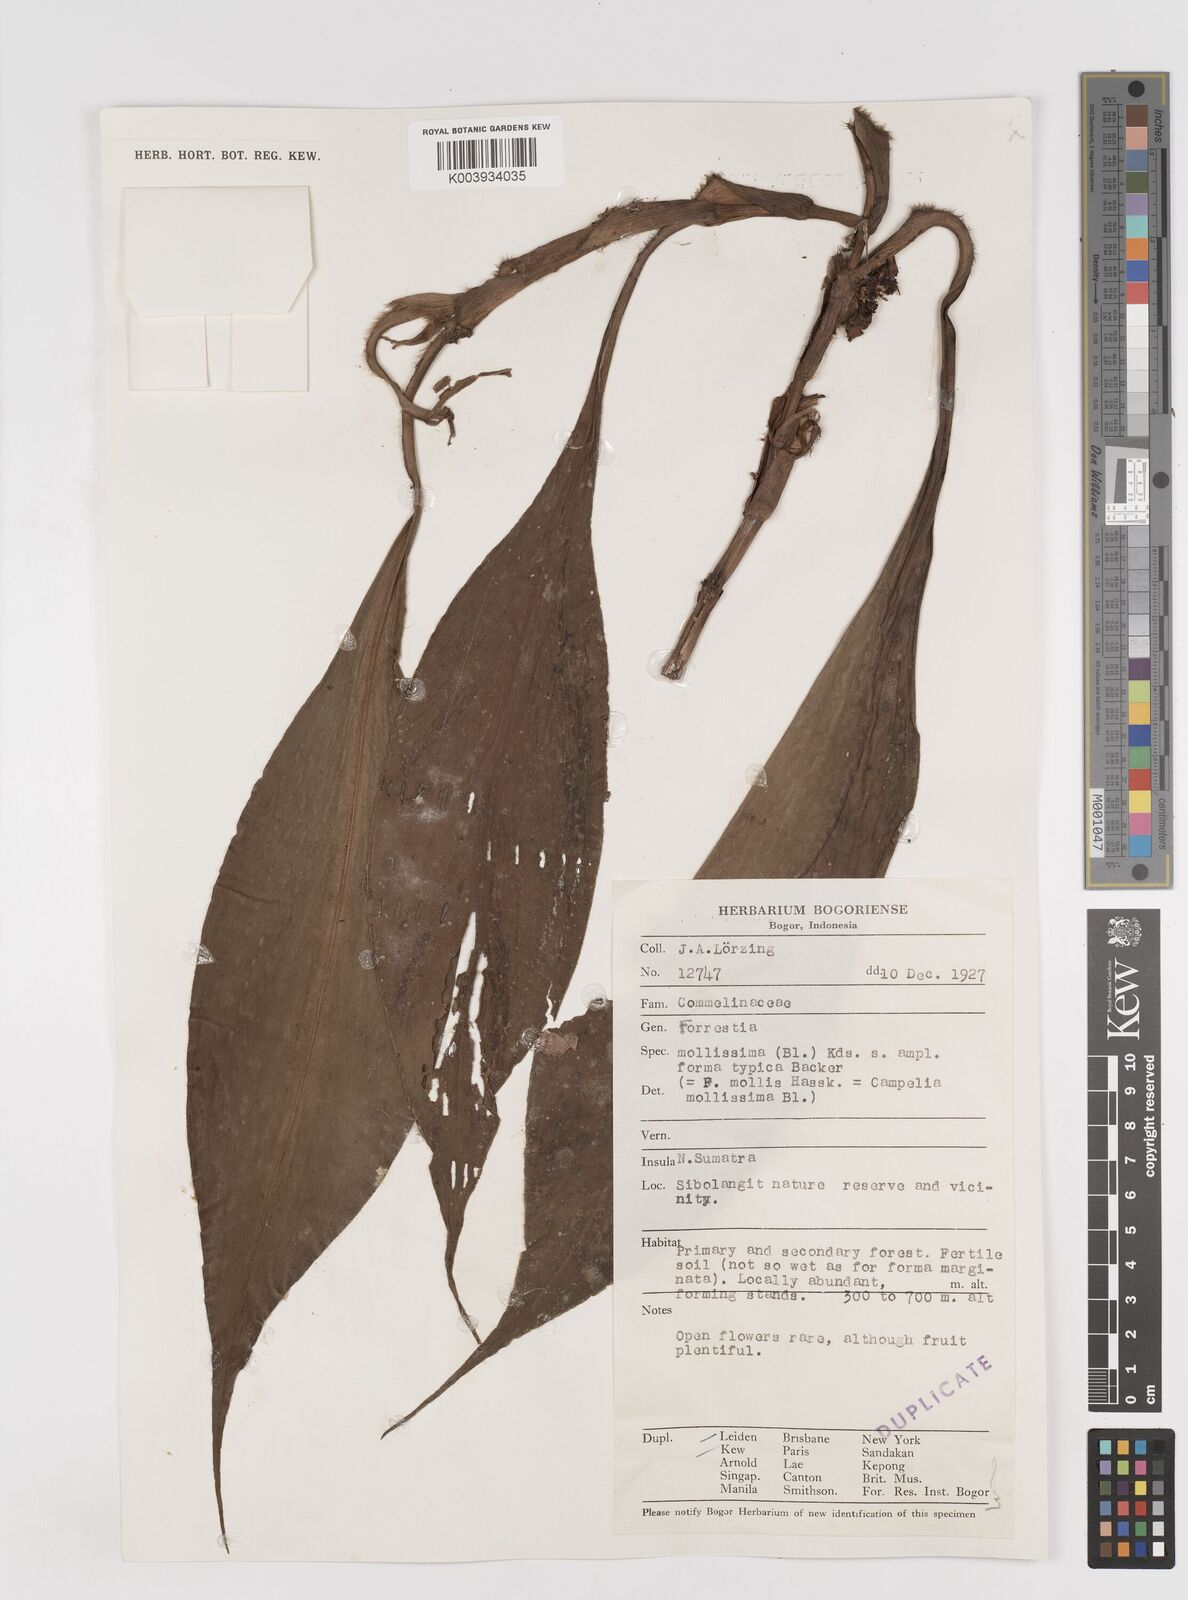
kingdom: Plantae
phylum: Tracheophyta
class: Liliopsida
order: Commelinales
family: Commelinaceae
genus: Amischotolype
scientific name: Amischotolype mollissima
